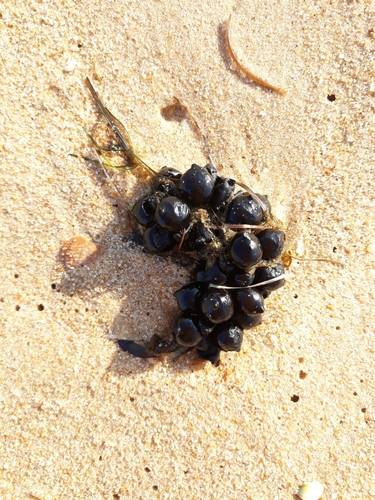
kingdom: Animalia
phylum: Mollusca
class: Cephalopoda
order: Sepiida
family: Sepiidae
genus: Sepia
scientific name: Sepia officinalis
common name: Common cuttlefish
